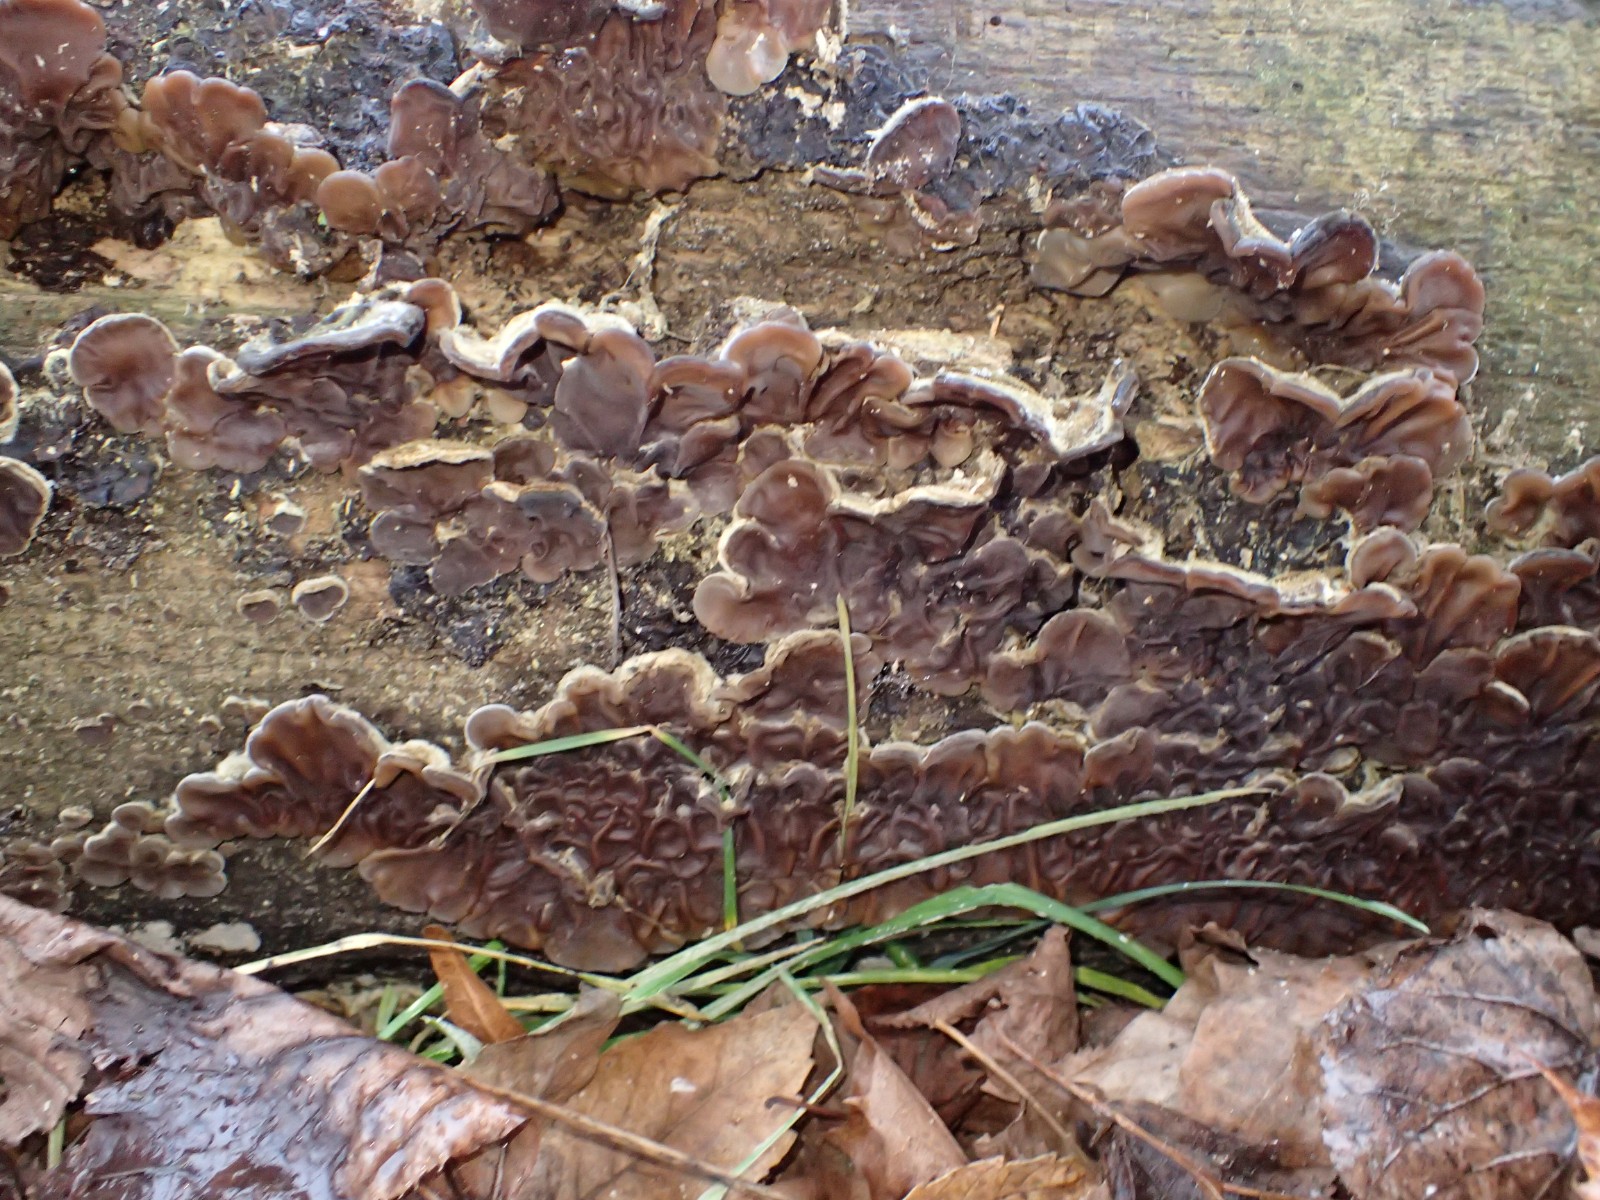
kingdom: Fungi
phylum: Basidiomycota
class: Agaricomycetes
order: Auriculariales
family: Auriculariaceae
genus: Auricularia
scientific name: Auricularia mesenterica
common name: håret judasøre
